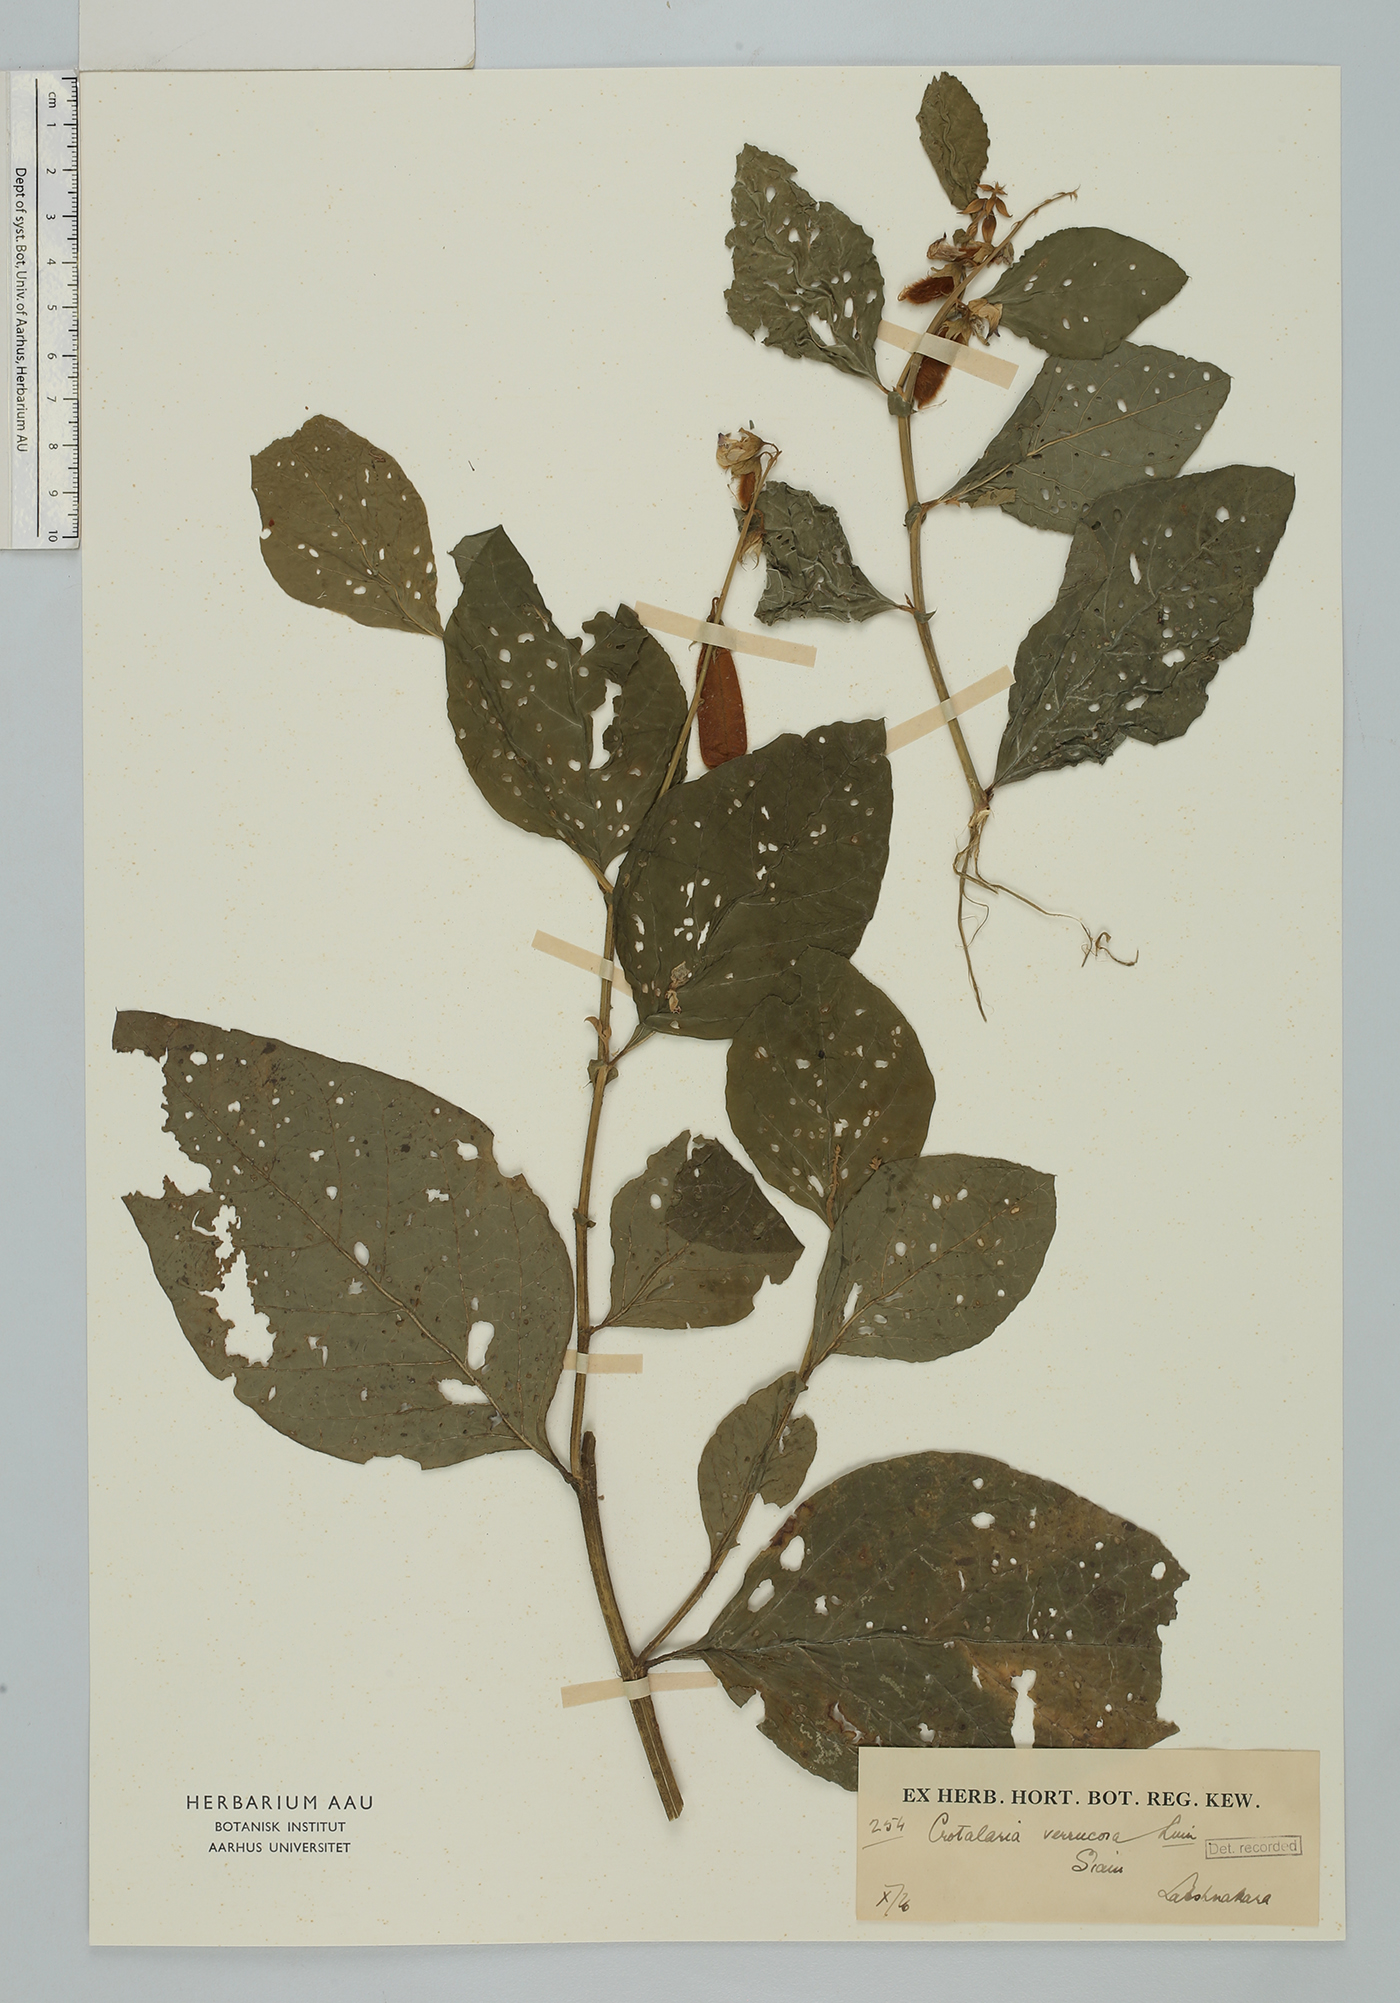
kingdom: Plantae
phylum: Tracheophyta
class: Magnoliopsida
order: Fabales
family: Fabaceae
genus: Crotalaria
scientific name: Crotalaria verrucosa
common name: Blue rattlesnake
